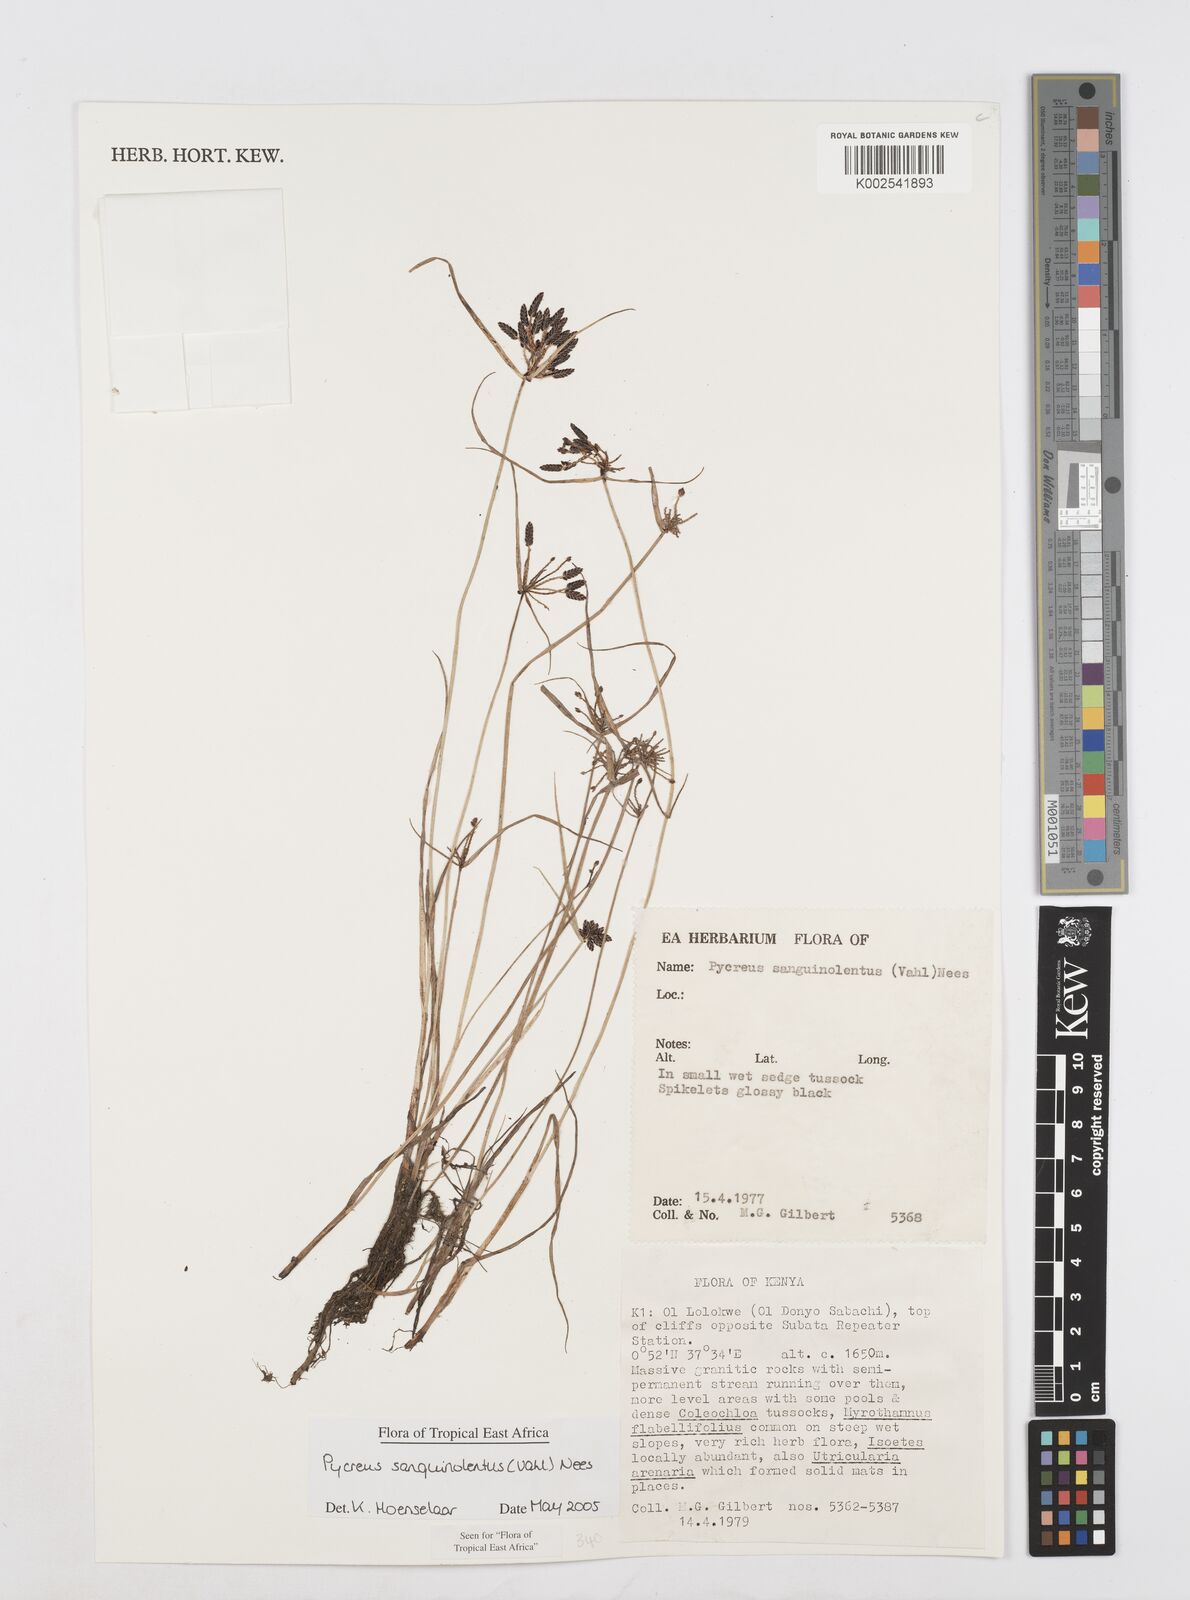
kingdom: Plantae
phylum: Tracheophyta
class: Liliopsida
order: Poales
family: Cyperaceae
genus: Cyperus
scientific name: Cyperus sanguinolentus
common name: Purpleglume flatsedge
